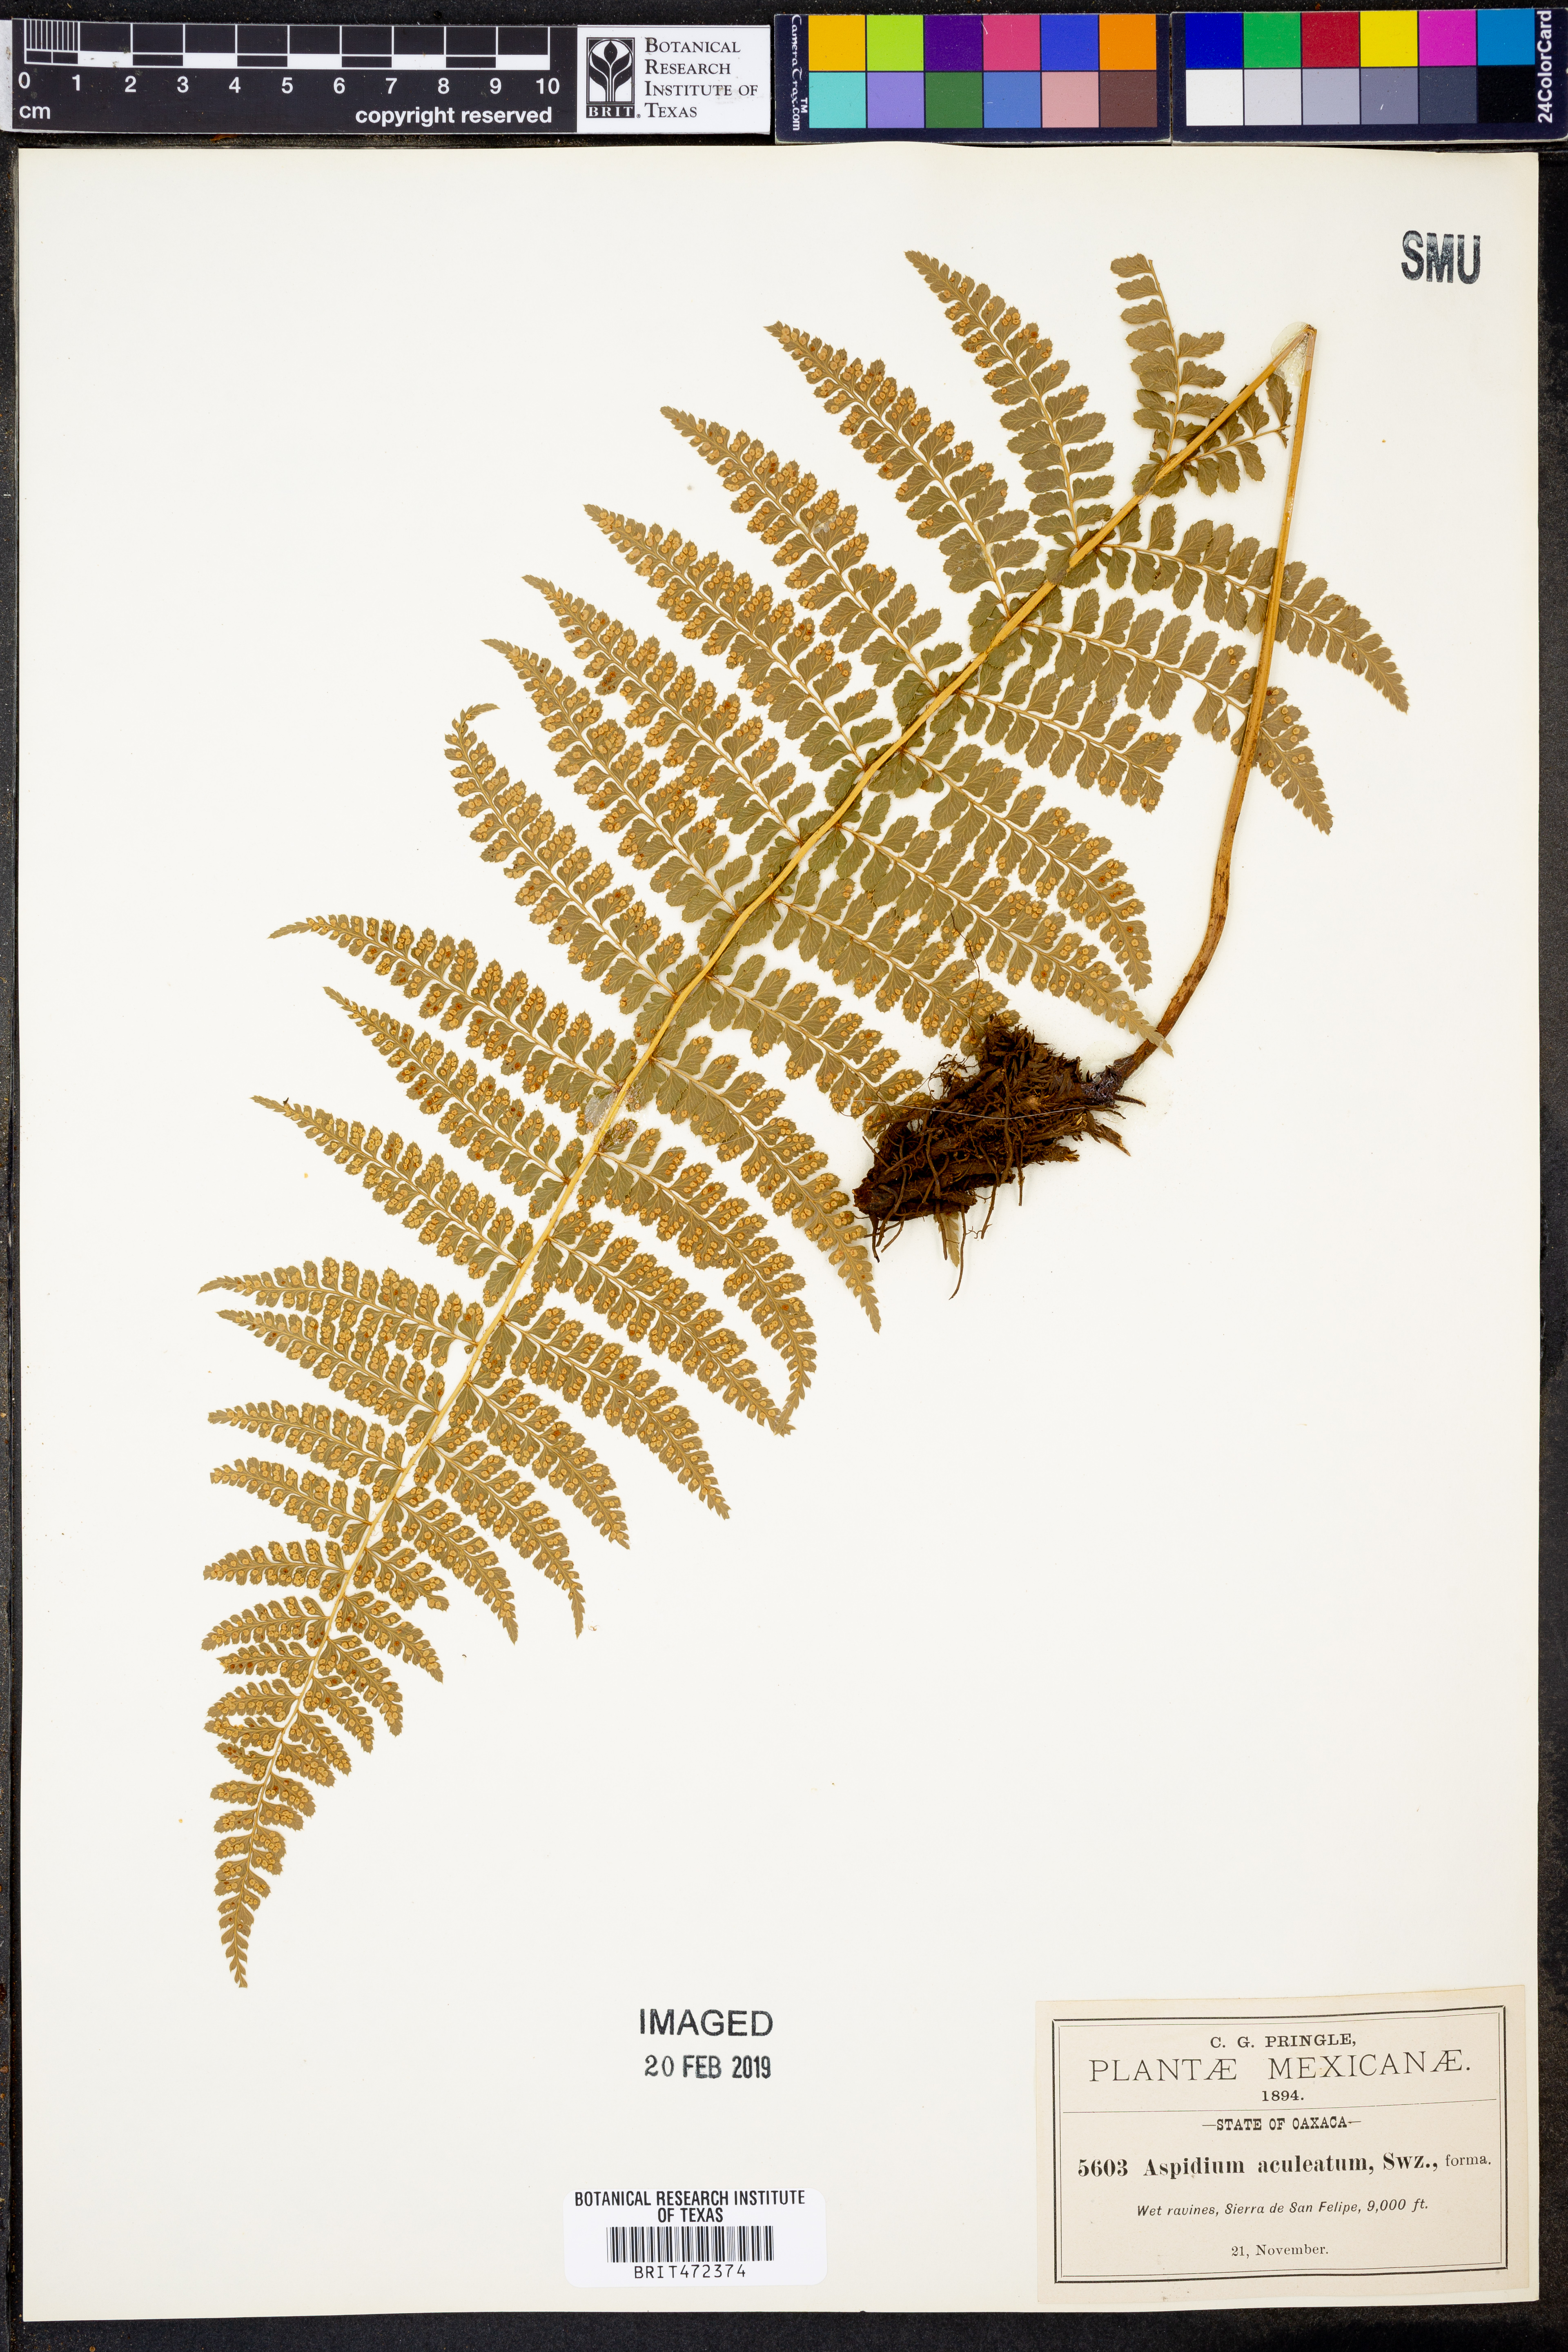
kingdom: Plantae
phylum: Tracheophyta
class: Polypodiopsida
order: Polypodiales
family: Dryopteridaceae
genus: Polystichum
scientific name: Polystichum fournieri
